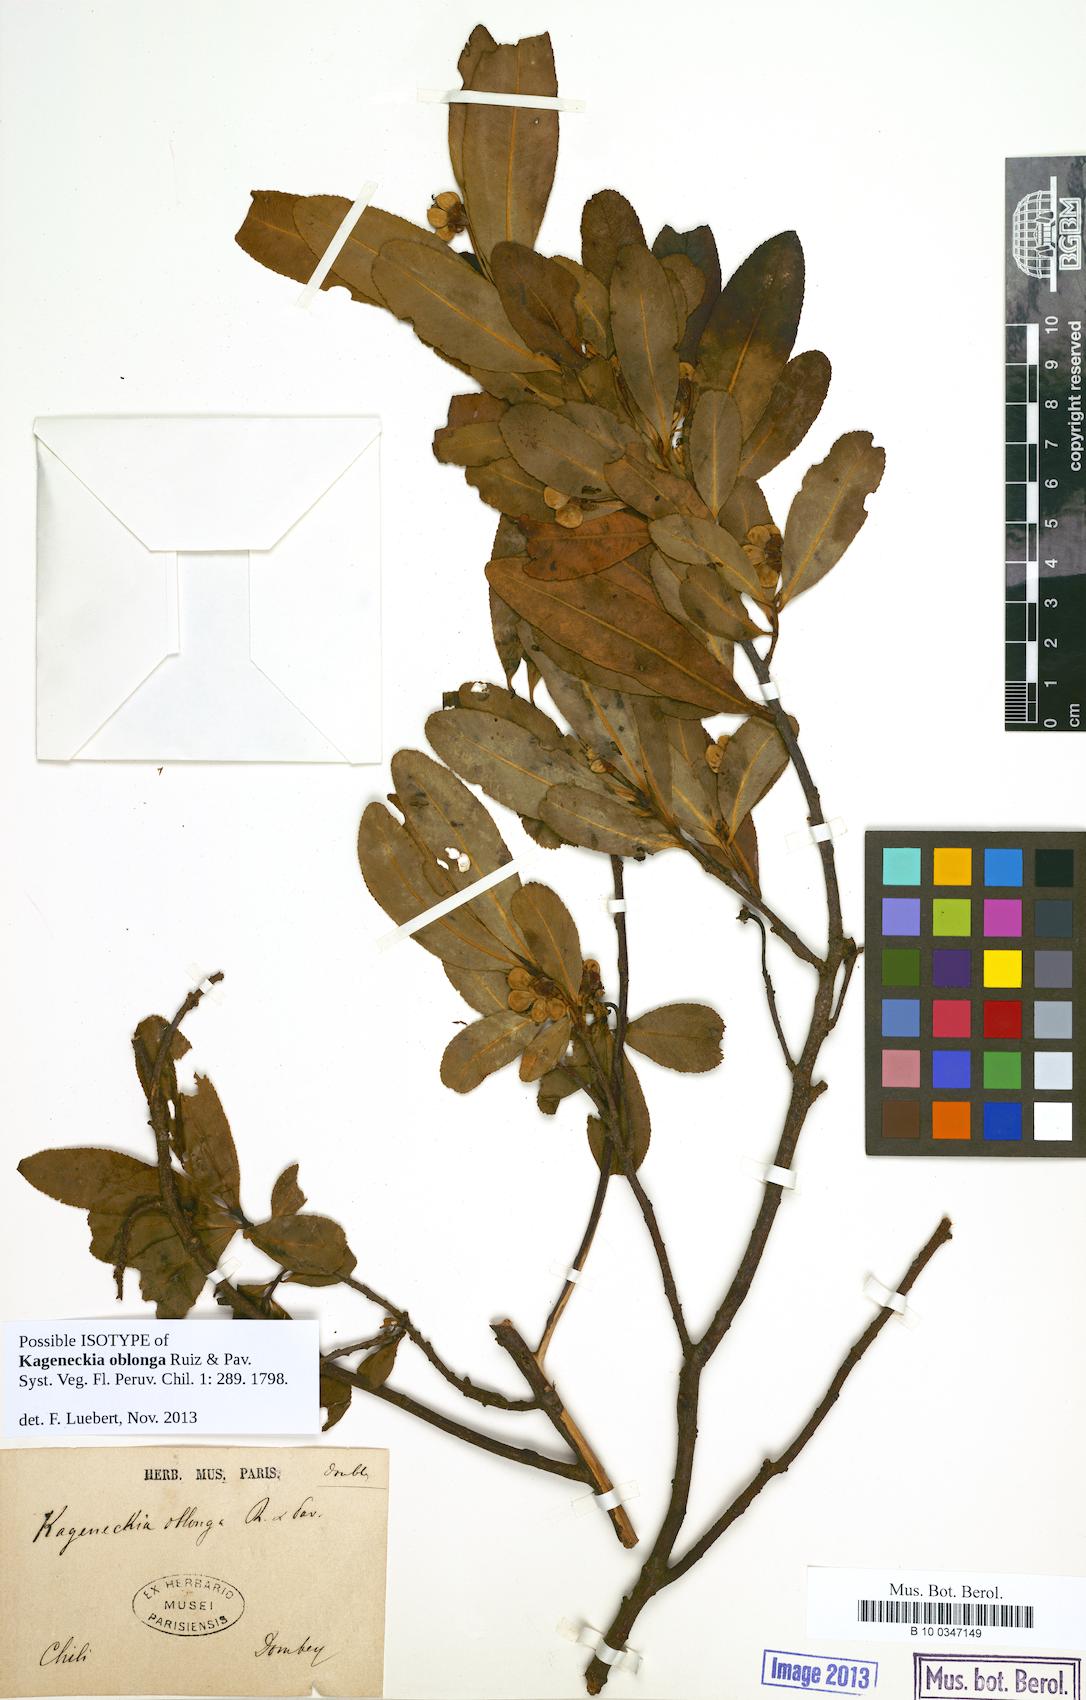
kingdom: Plantae
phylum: Tracheophyta
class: Magnoliopsida
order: Rosales
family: Rosaceae
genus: Kageneckia
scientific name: Kageneckia oblonga
